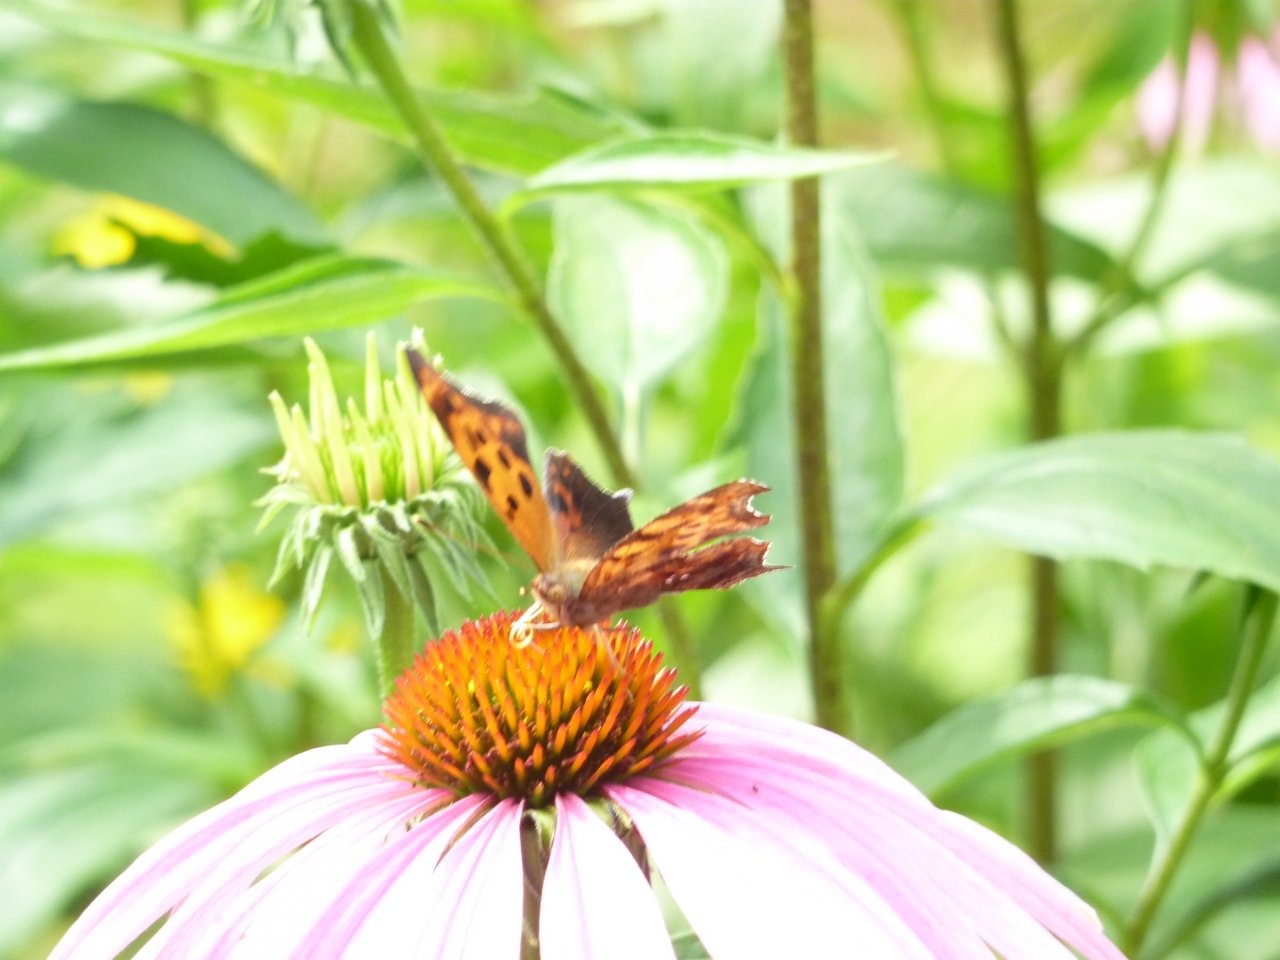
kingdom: Animalia
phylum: Arthropoda
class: Insecta
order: Lepidoptera
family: Nymphalidae
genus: Polygonia
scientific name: Polygonia interrogationis
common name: Question Mark
